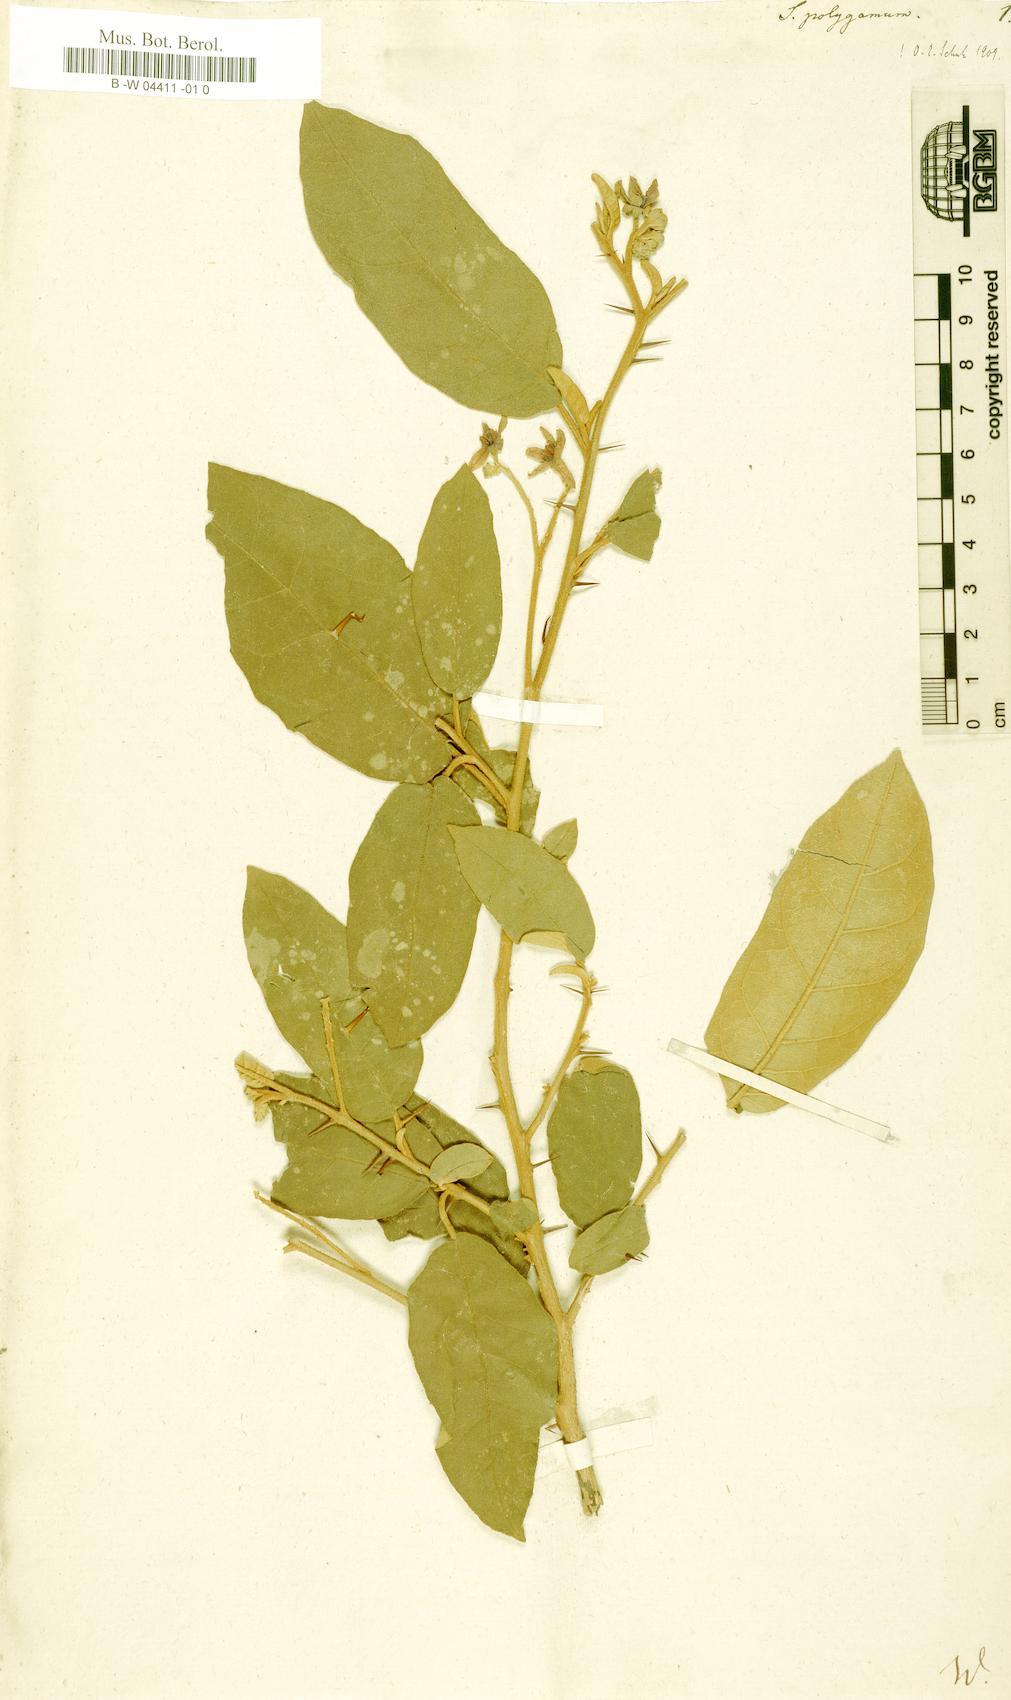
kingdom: Plantae
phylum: Tracheophyta
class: Magnoliopsida
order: Solanales
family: Solanaceae
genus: Solanum
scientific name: Solanum polygamum
